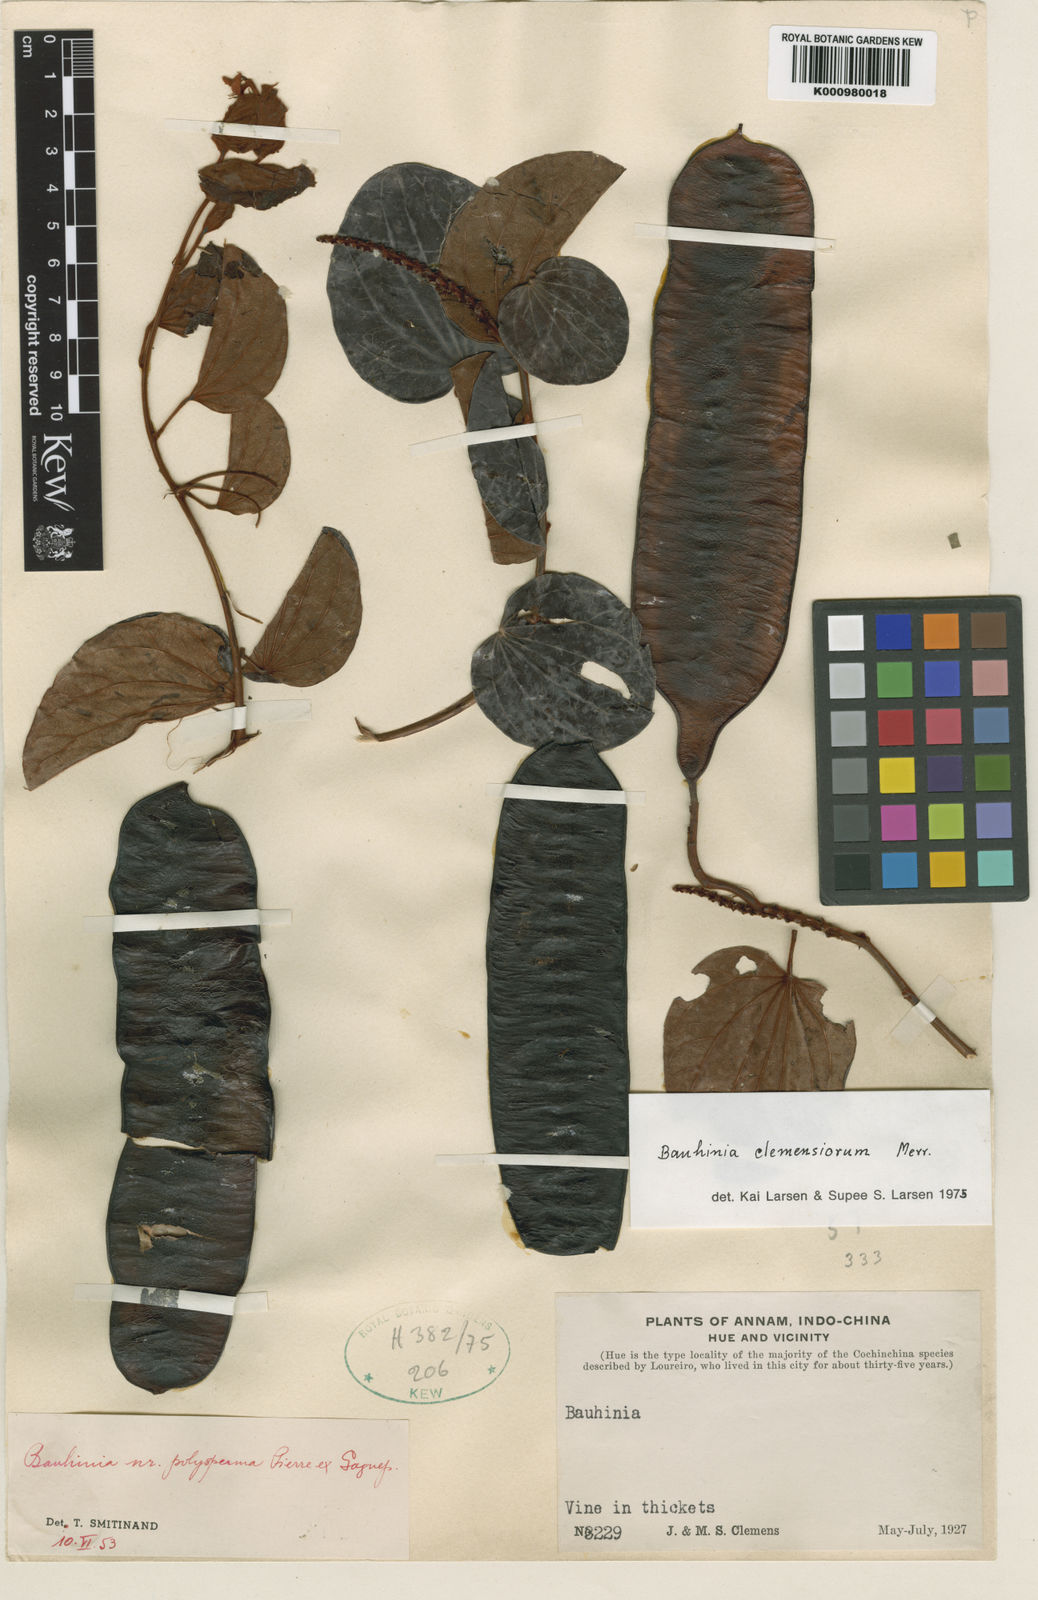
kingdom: Plantae
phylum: Tracheophyta
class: Magnoliopsida
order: Fabales
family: Fabaceae
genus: Cheniella
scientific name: Cheniella clemensiorum
